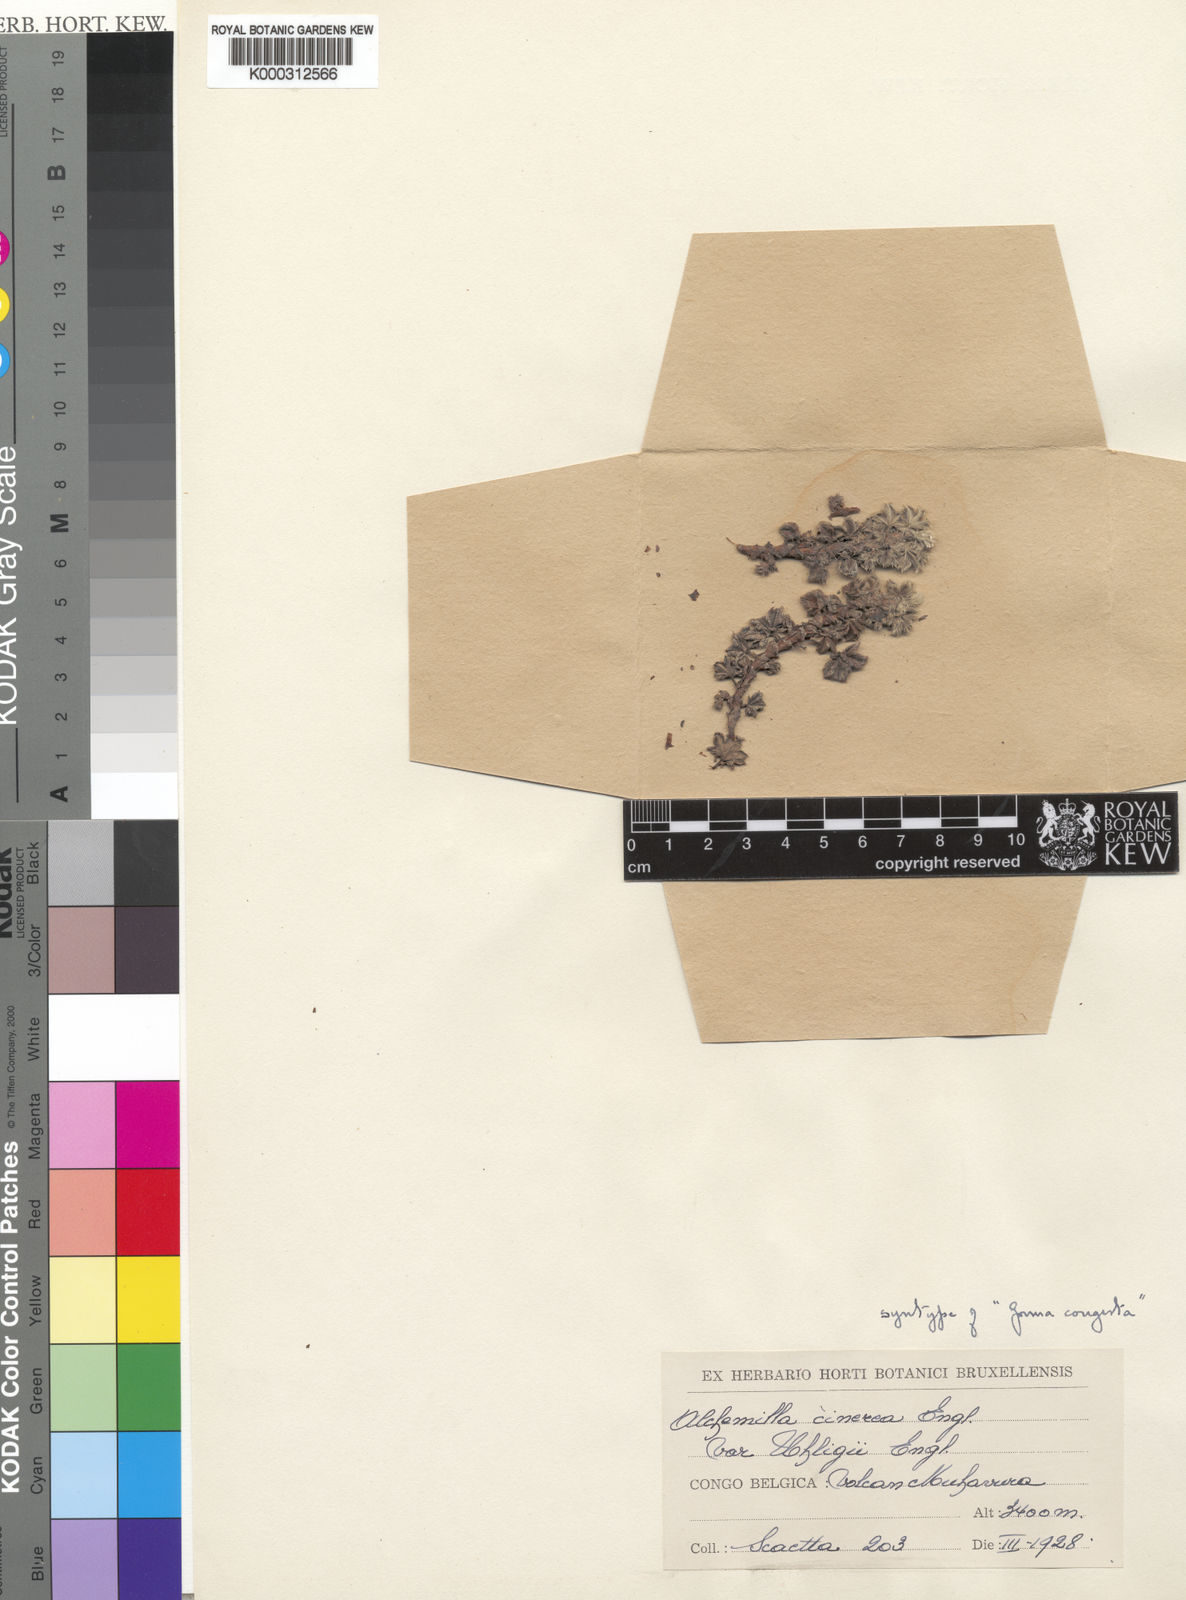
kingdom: Plantae
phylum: Tracheophyta
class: Magnoliopsida
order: Rosales
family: Rosaceae
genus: Alchemilla
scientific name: Alchemilla
